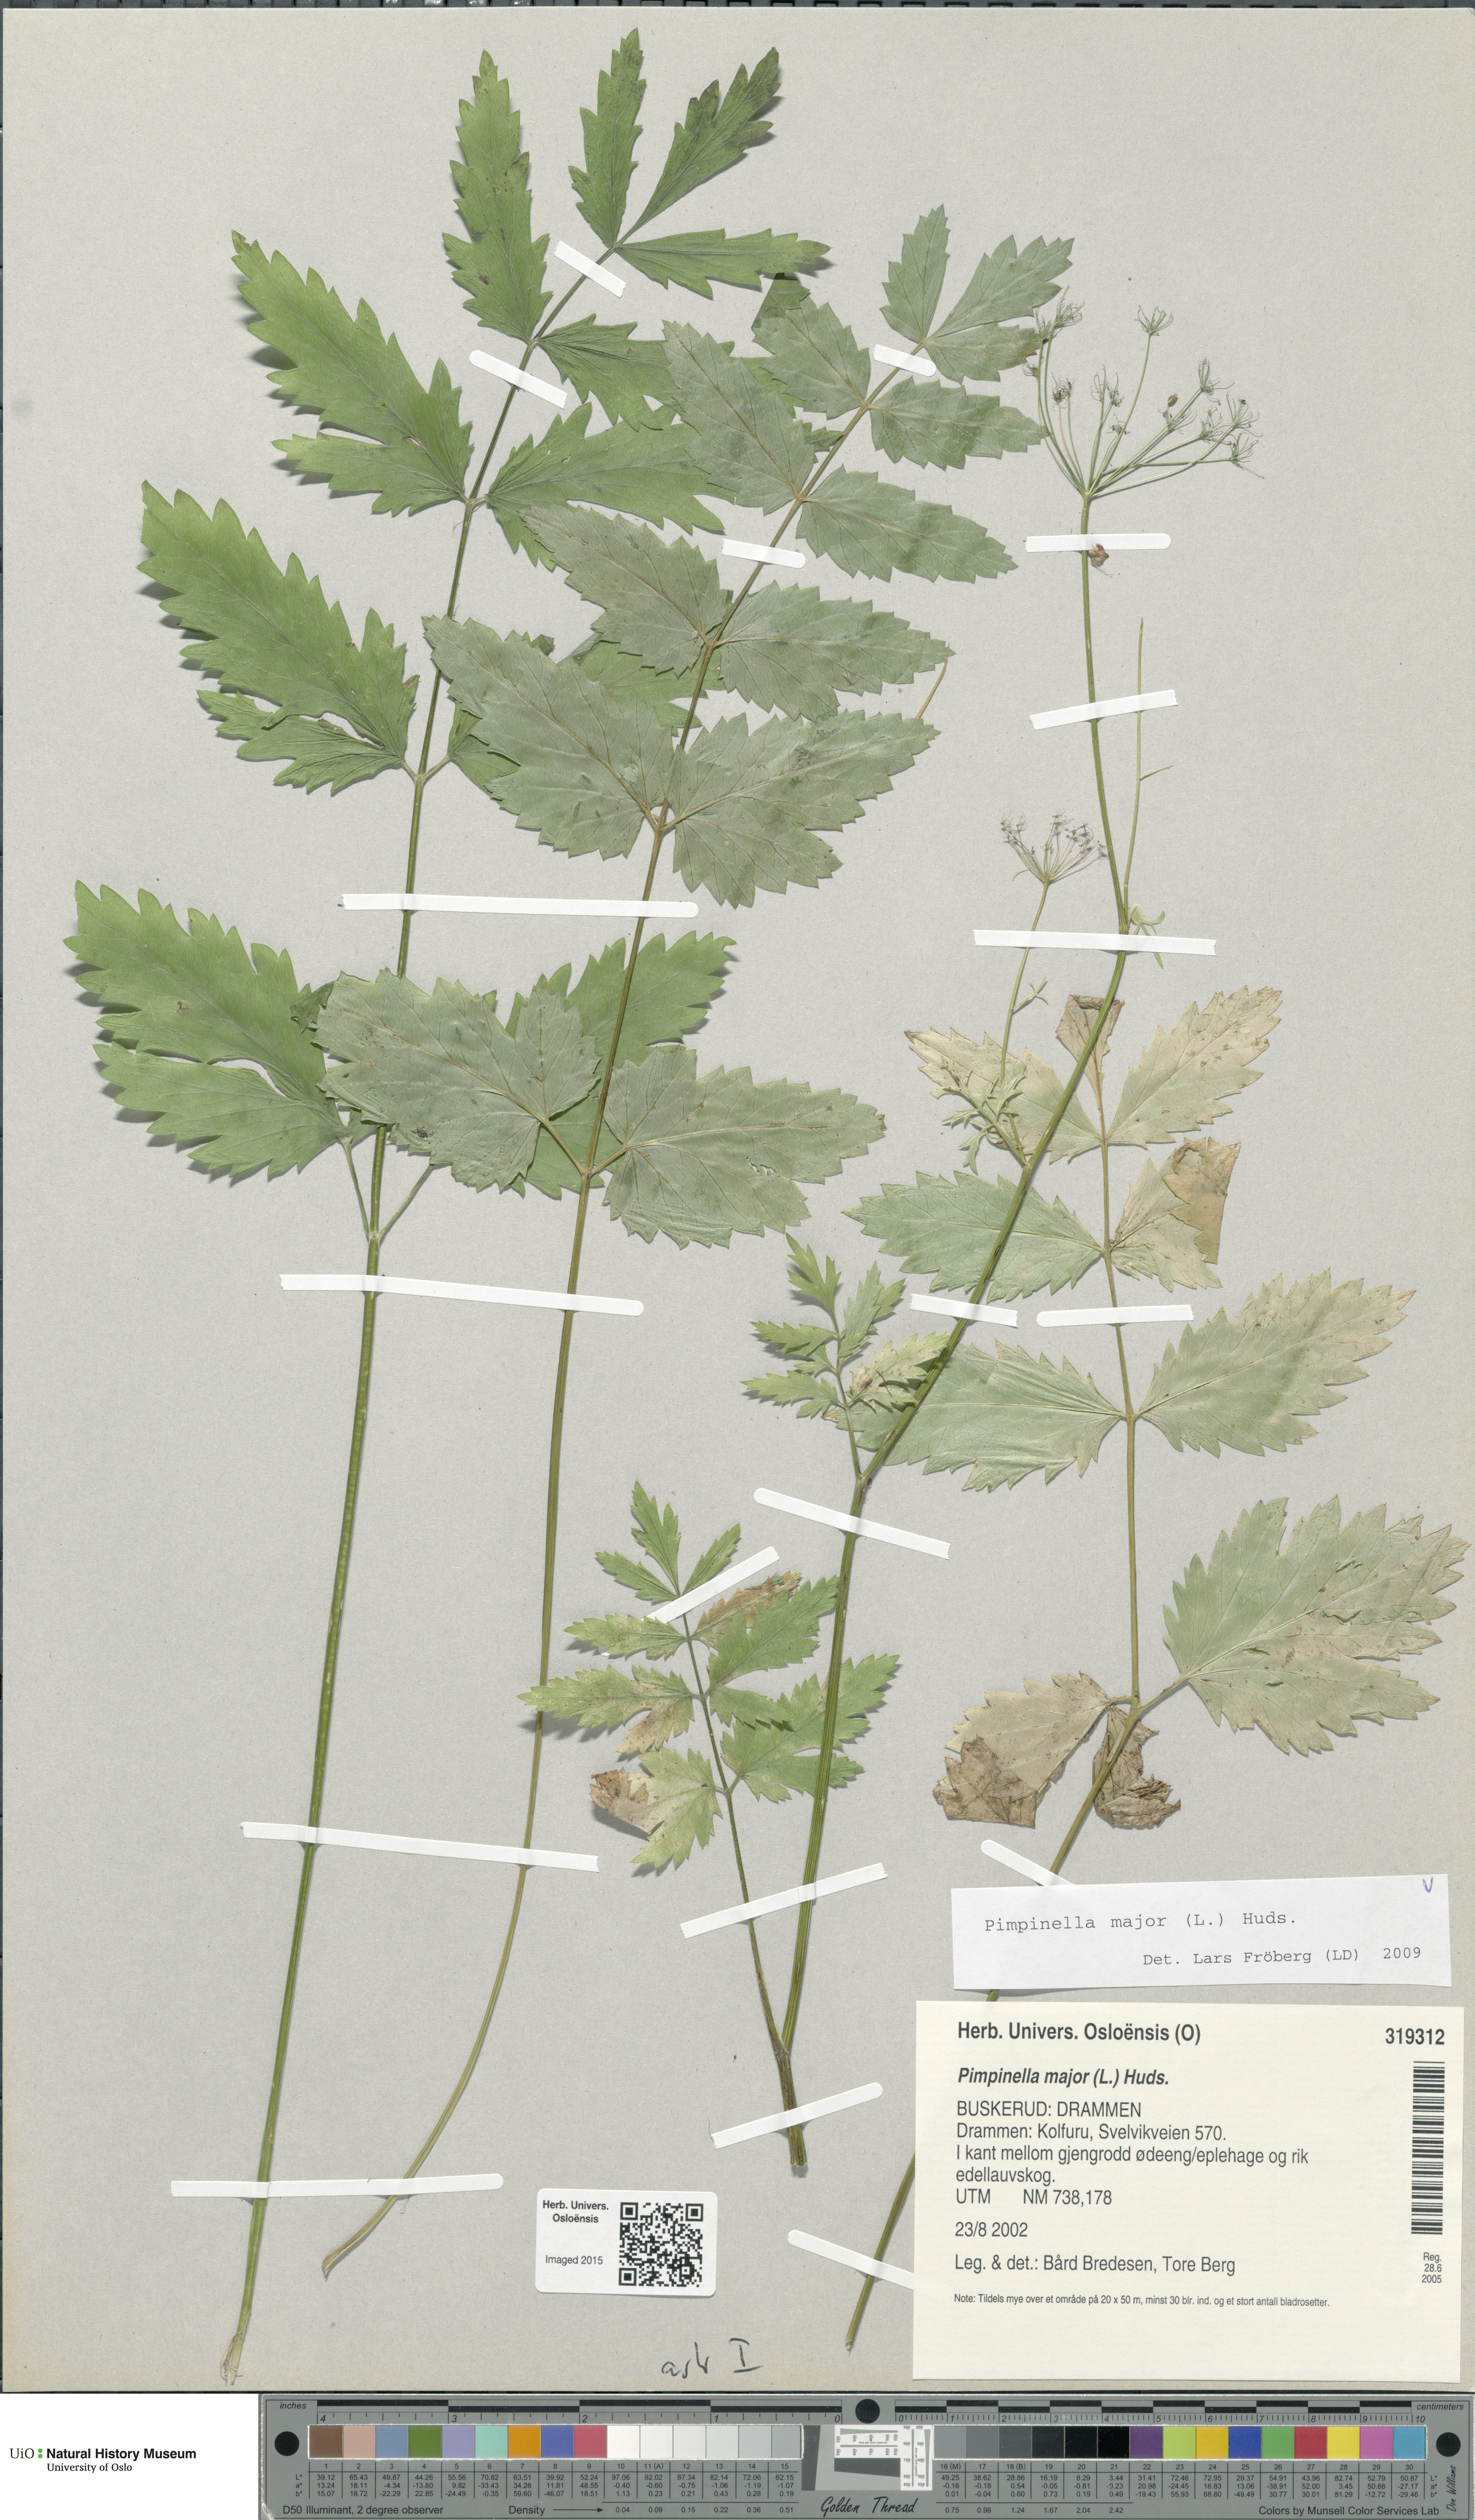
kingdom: Plantae
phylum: Tracheophyta
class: Magnoliopsida
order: Apiales
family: Apiaceae
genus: Pimpinella
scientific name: Pimpinella major
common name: Greater burnet-saxifrage
